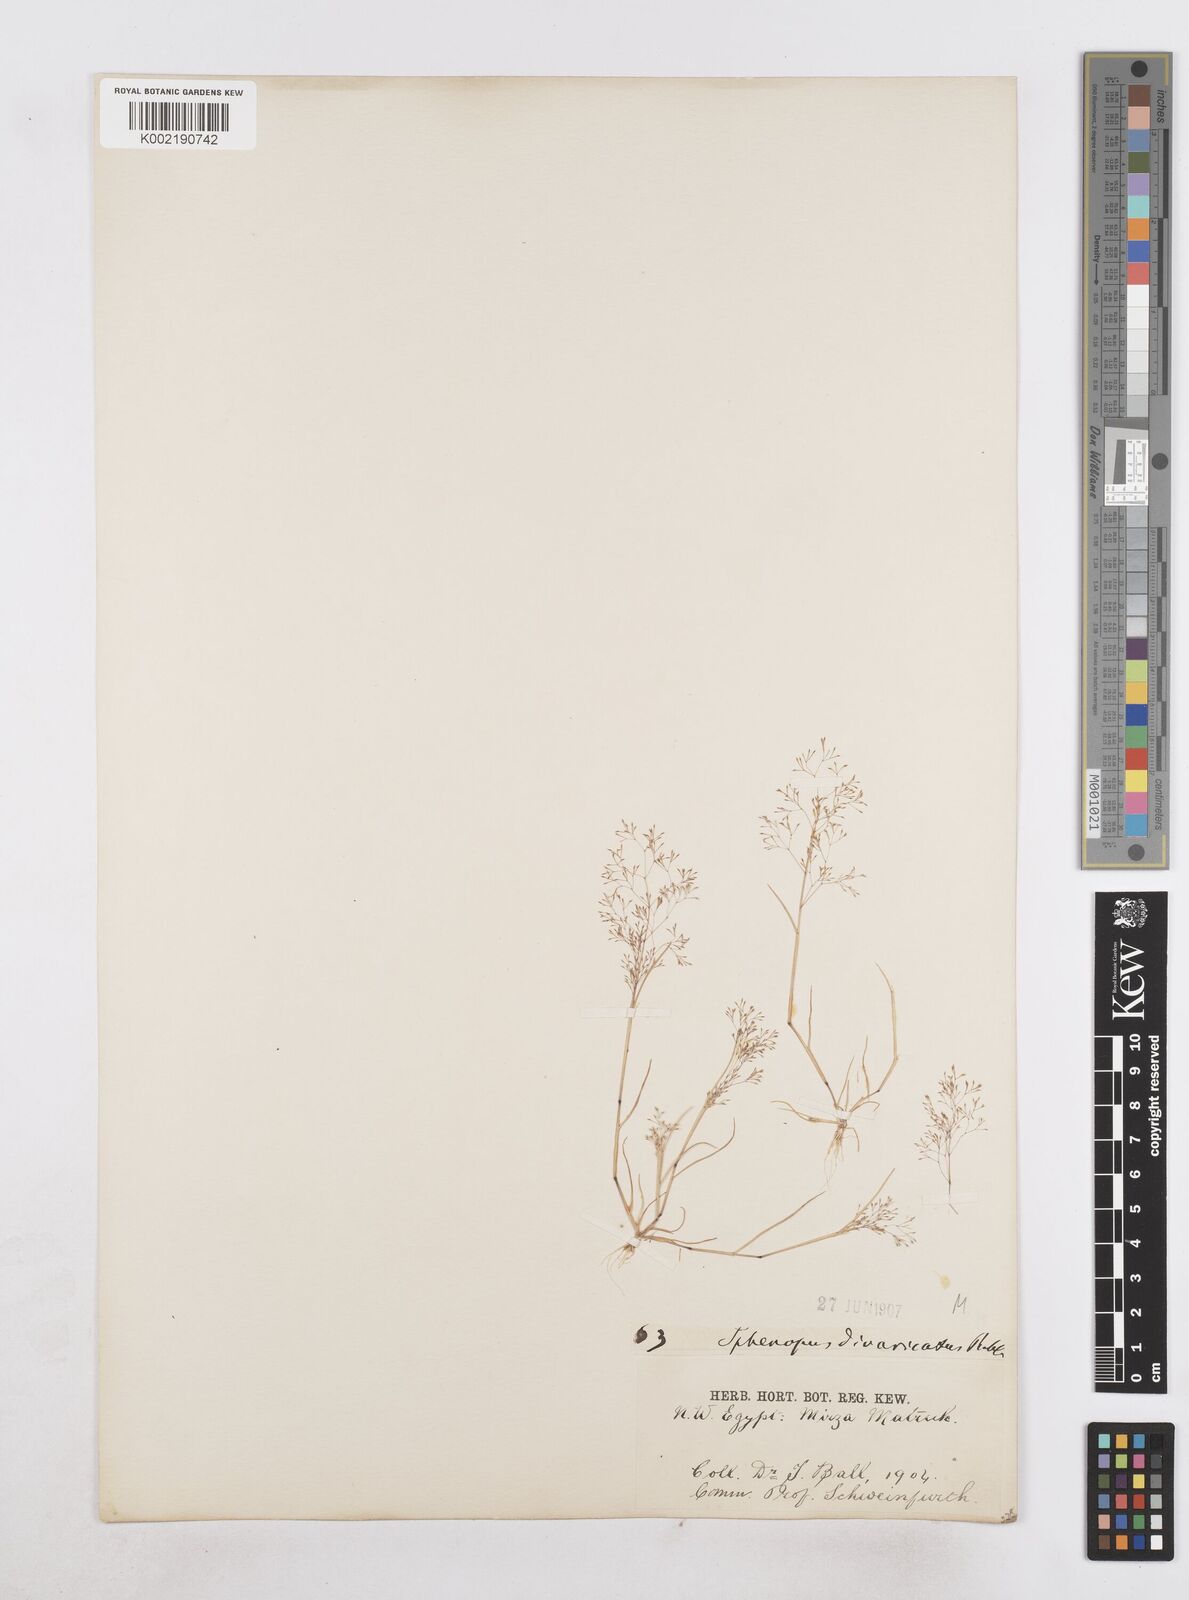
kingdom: Plantae
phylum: Tracheophyta
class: Liliopsida
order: Poales
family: Poaceae
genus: Sphenopus
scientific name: Sphenopus divaricatus
